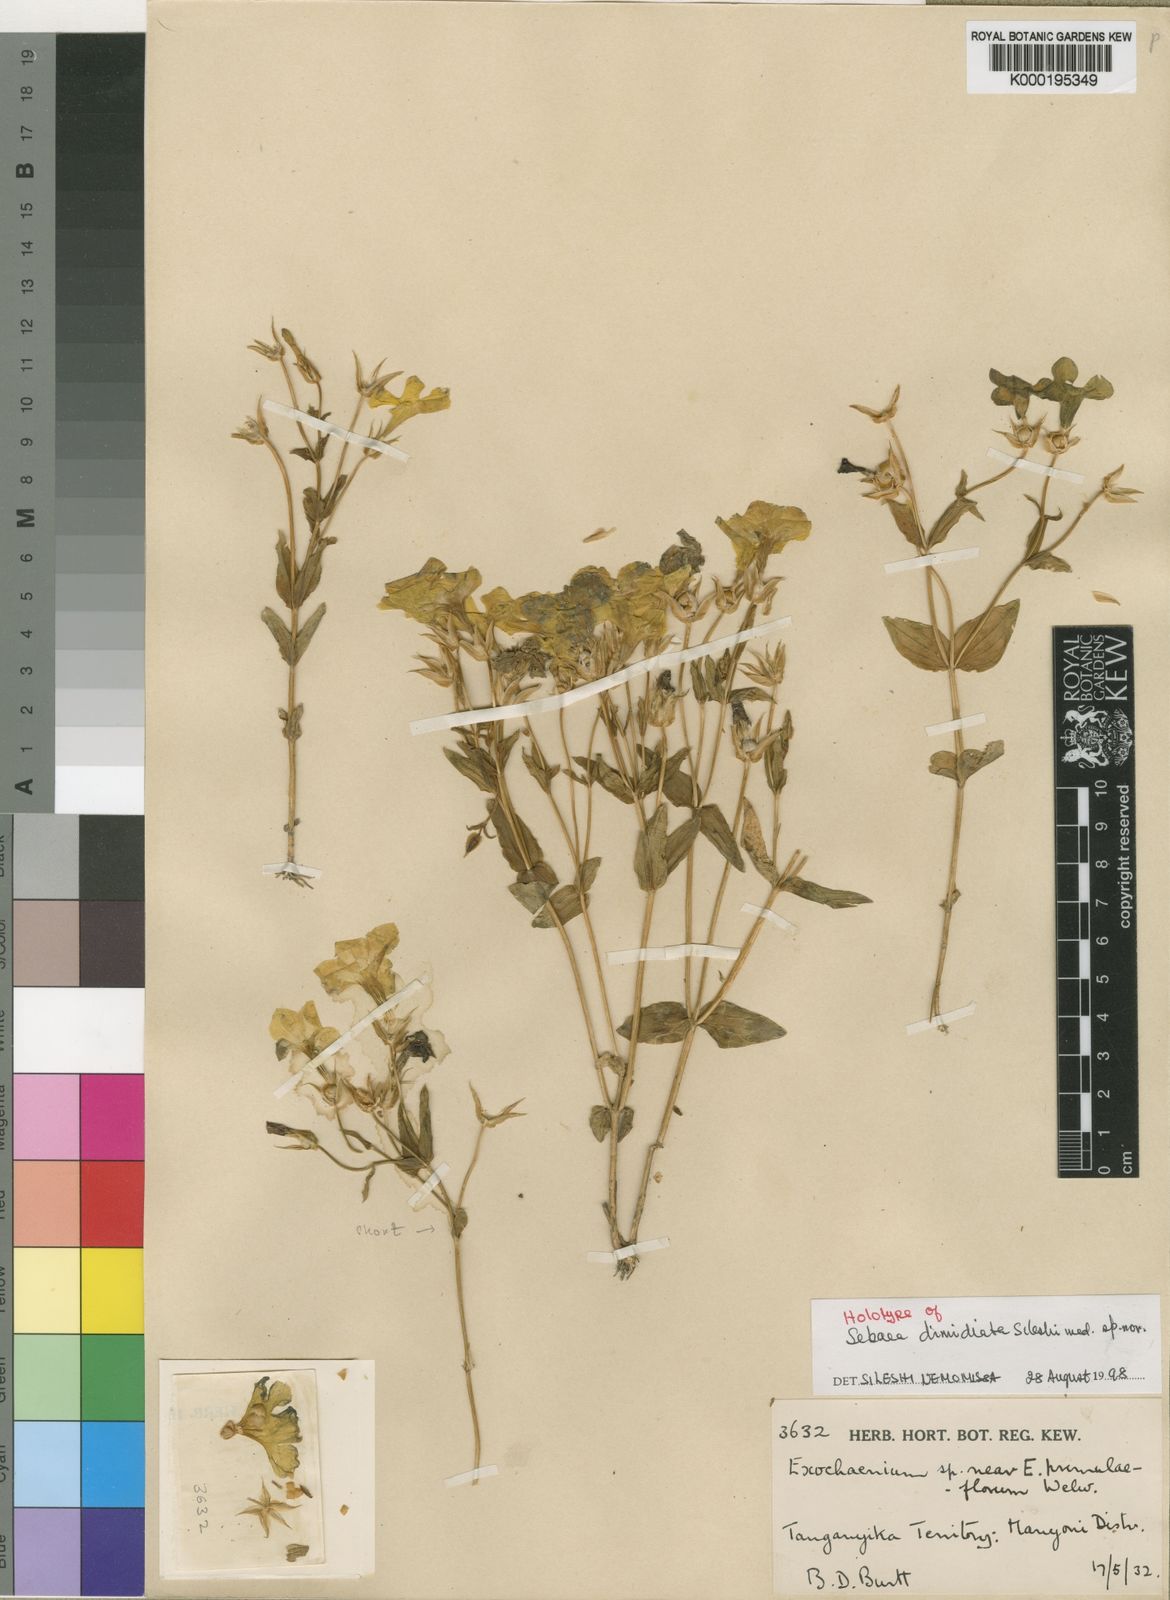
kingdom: Plantae
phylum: Tracheophyta
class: Magnoliopsida
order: Gentianales
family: Gentianaceae
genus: Exochaenium
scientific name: Exochaenium dimidiatum
